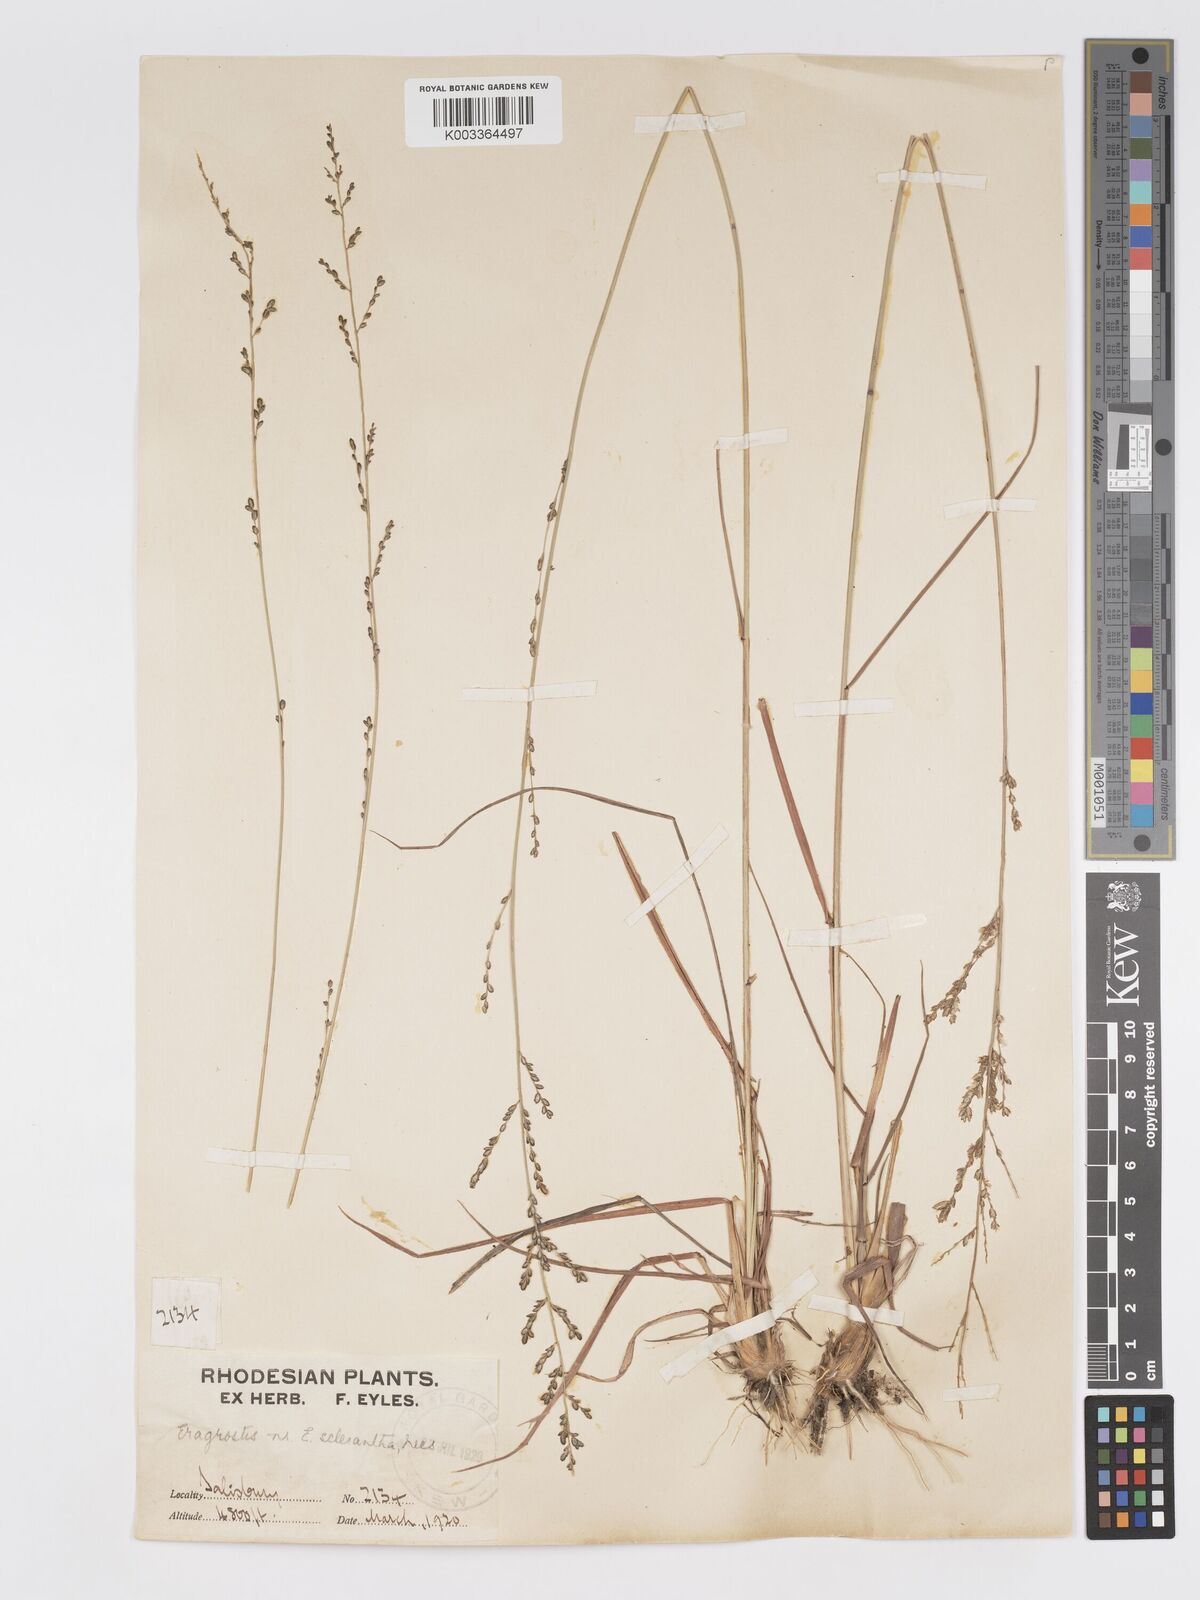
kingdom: Plantae
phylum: Tracheophyta
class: Liliopsida
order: Poales
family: Poaceae
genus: Eragrostis
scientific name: Eragrostis sclerantha
